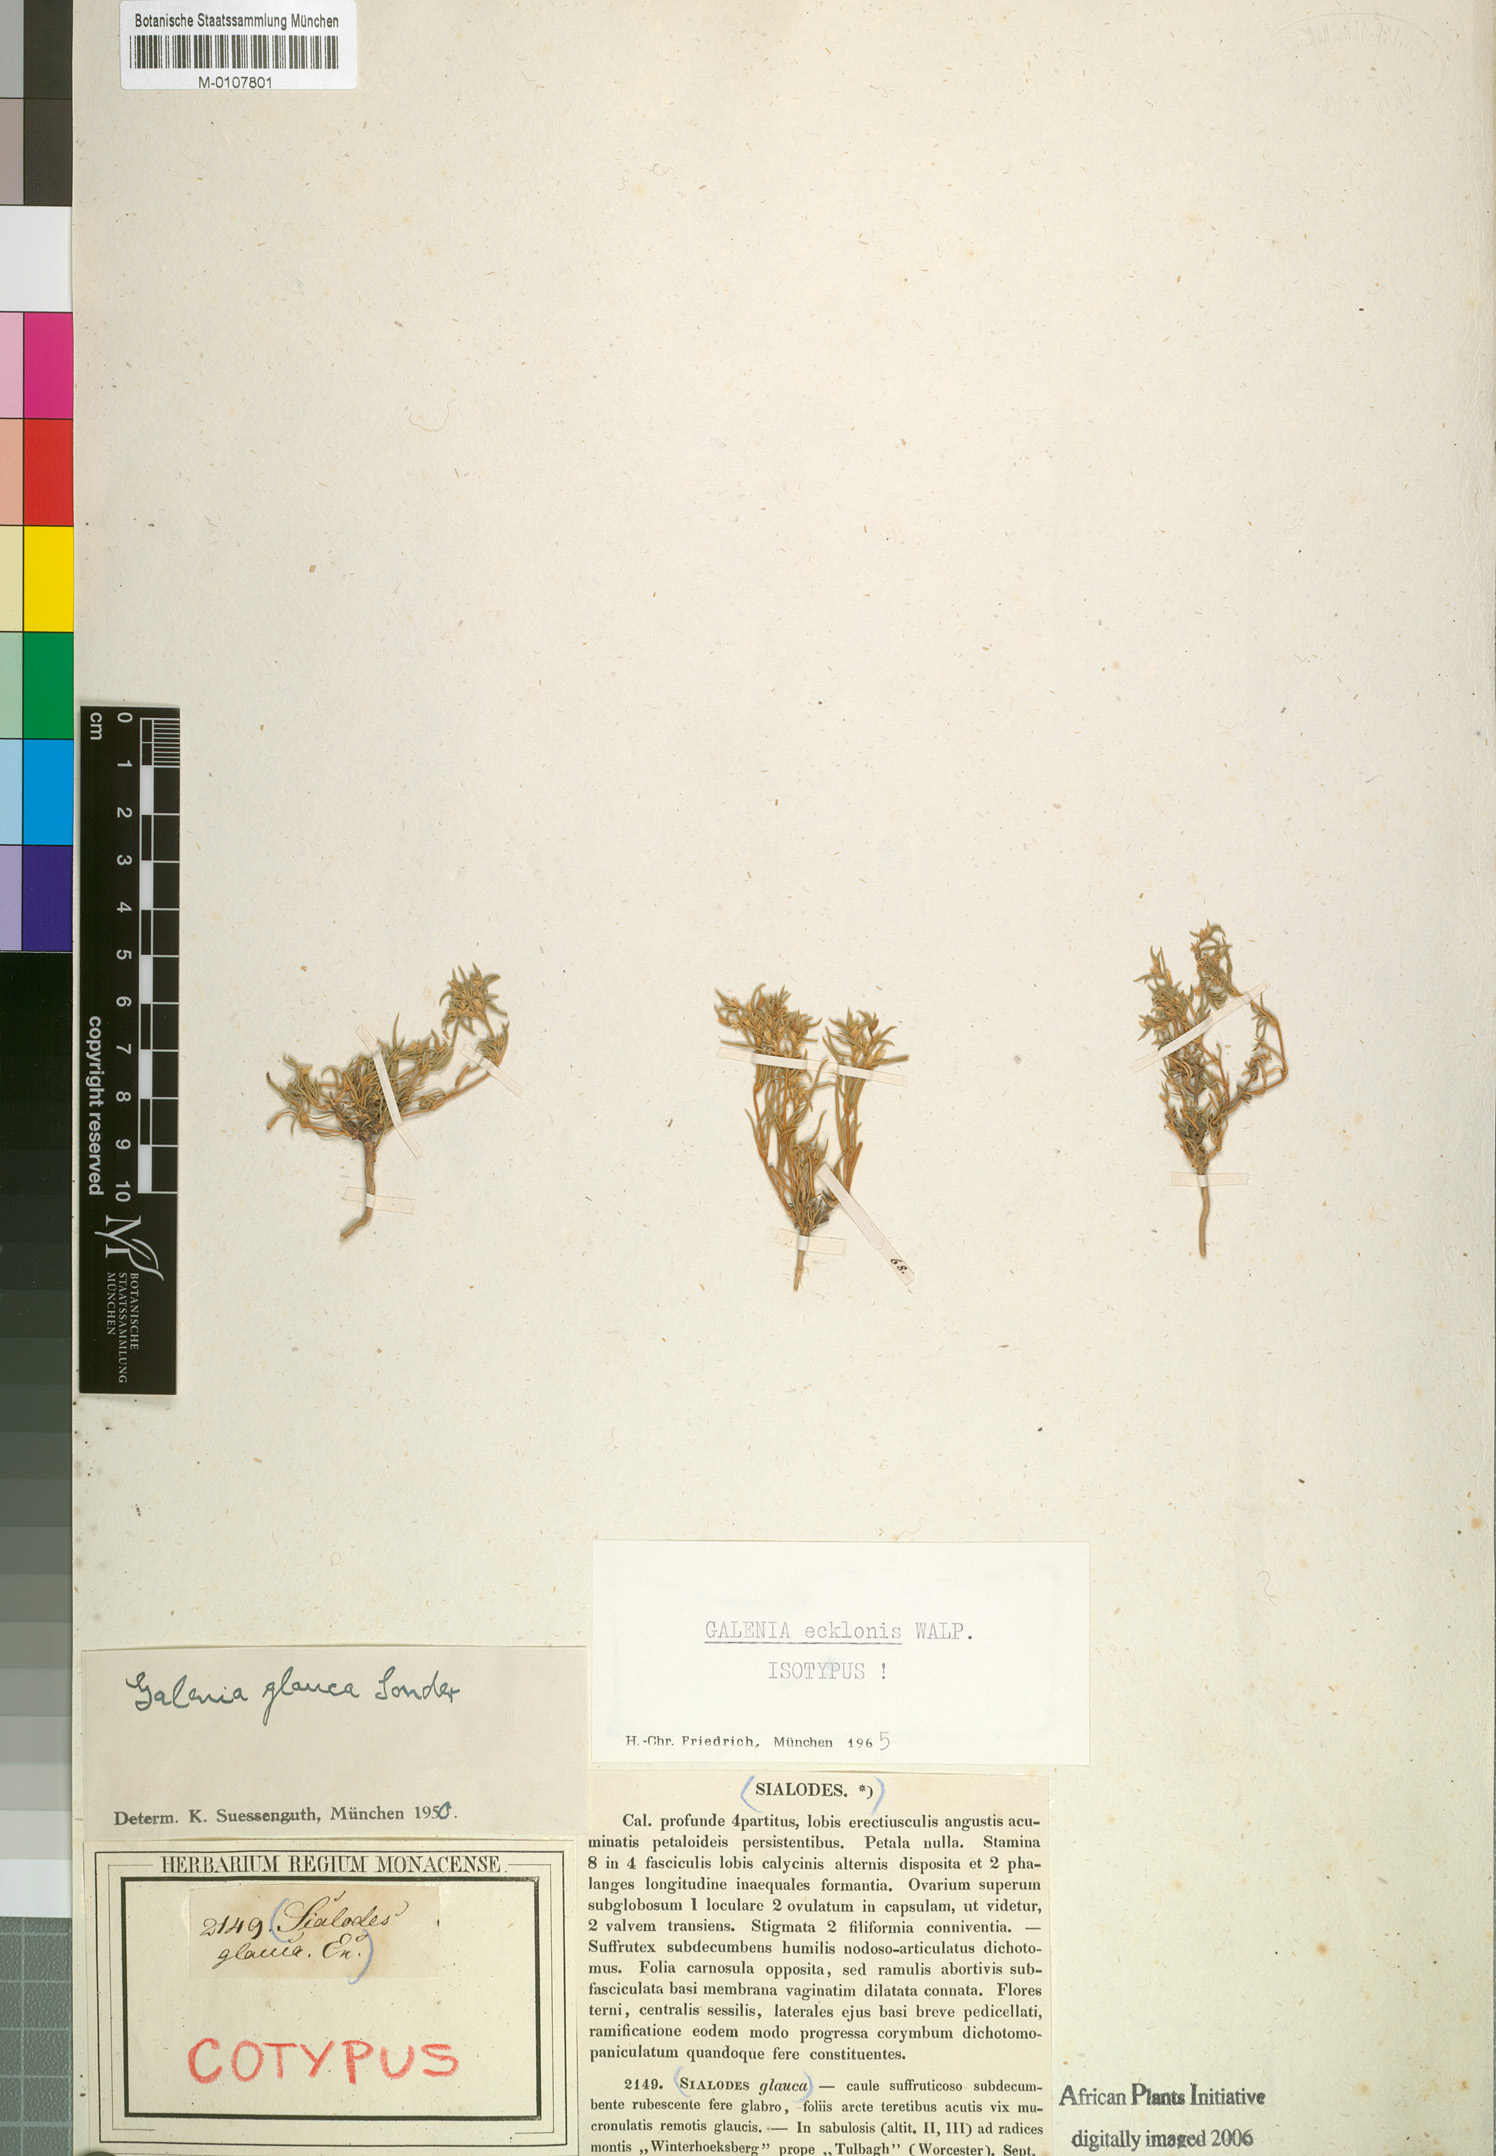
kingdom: Plantae
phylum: Tracheophyta
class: Magnoliopsida
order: Caryophyllales
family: Aizoaceae
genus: Aizoon
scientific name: Aizoon ecklonis
